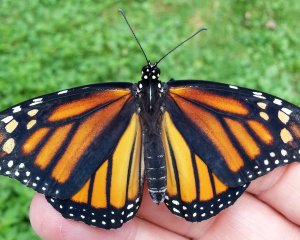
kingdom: Animalia
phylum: Arthropoda
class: Insecta
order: Lepidoptera
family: Nymphalidae
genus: Danaus
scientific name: Danaus plexippus
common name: Monarch
